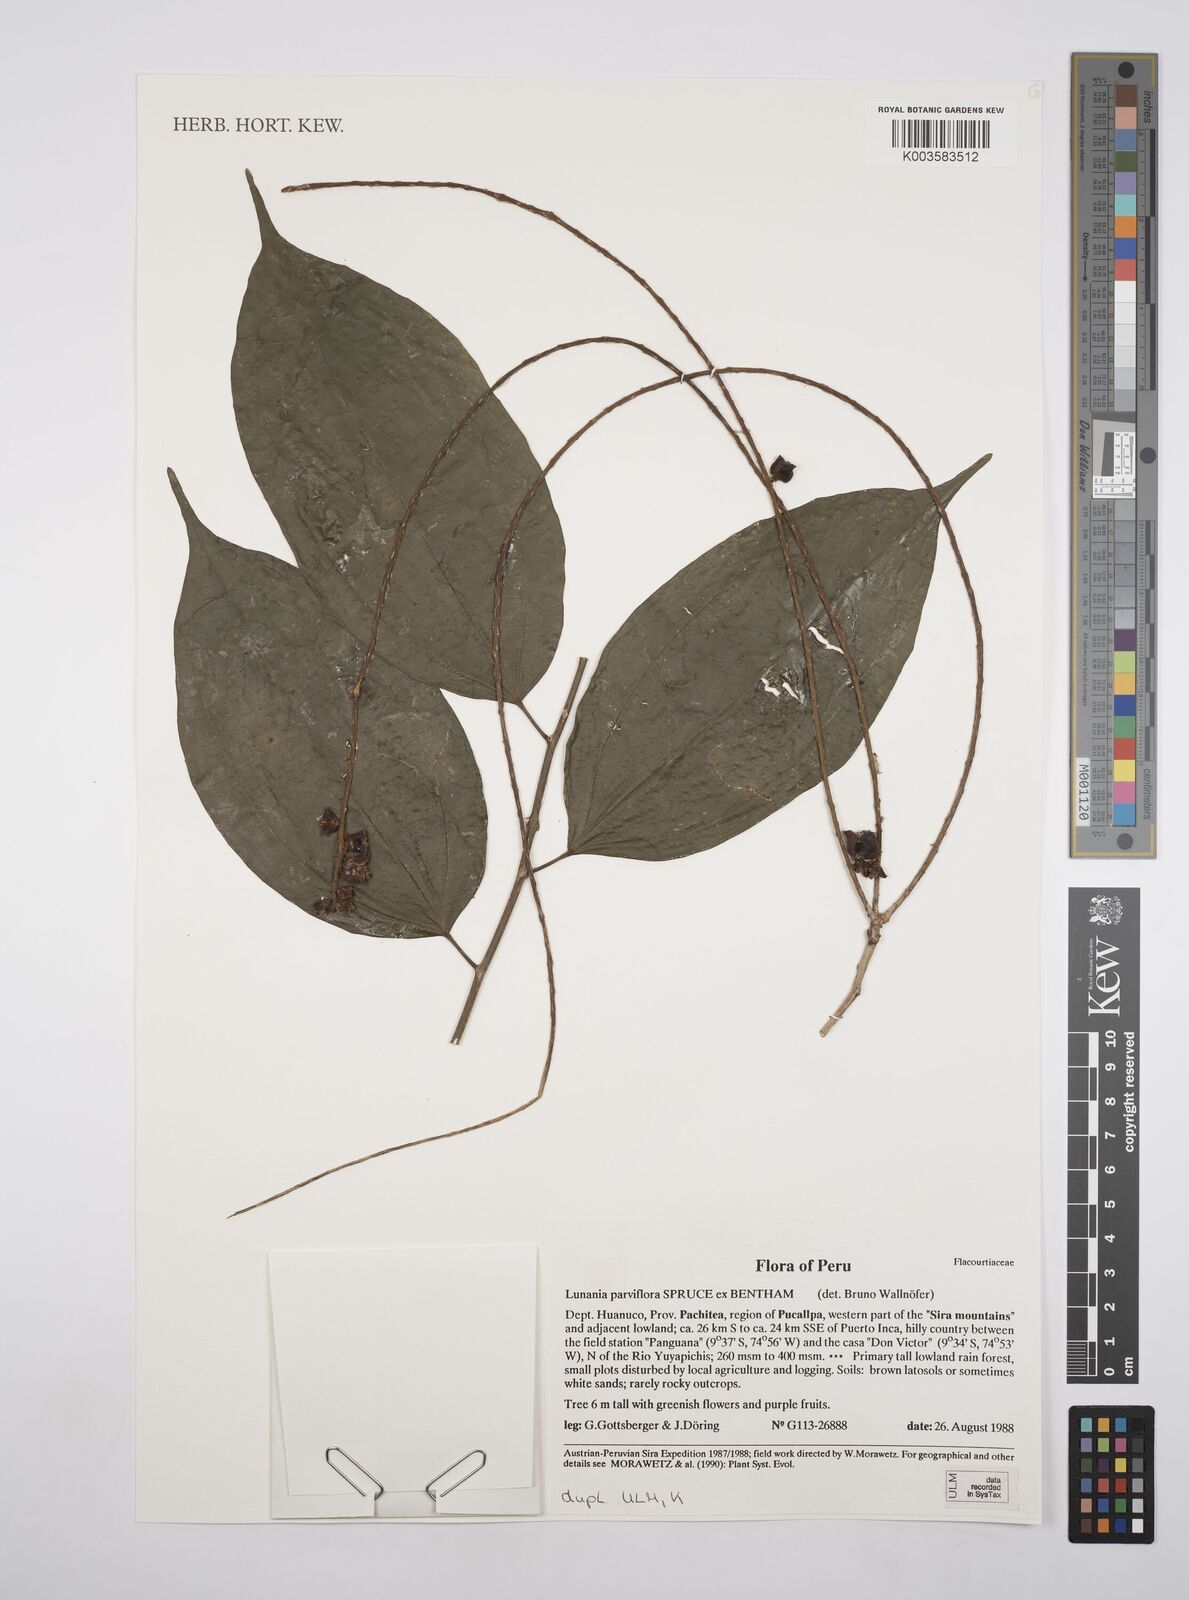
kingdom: Plantae
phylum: Tracheophyta
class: Magnoliopsida
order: Malpighiales
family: Salicaceae
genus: Lunania
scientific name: Lunania parviflora
